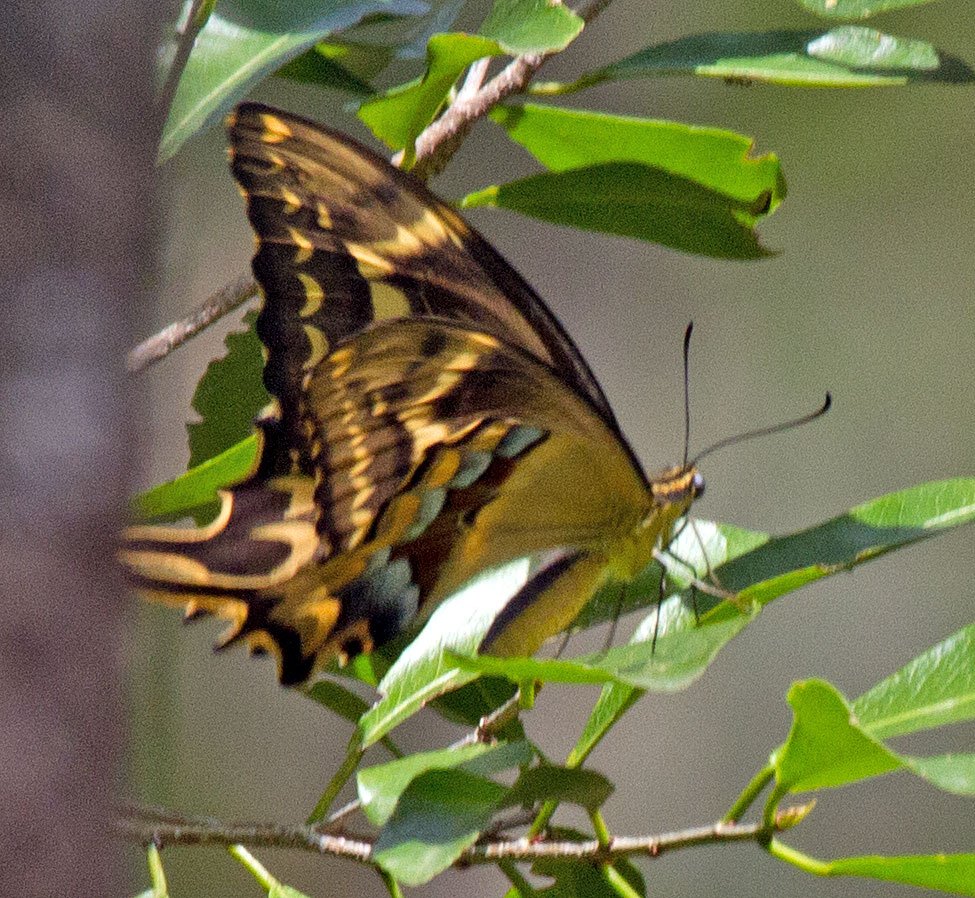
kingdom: Animalia
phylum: Arthropoda
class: Insecta
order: Lepidoptera
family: Papilionidae
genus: Heraclides
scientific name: Heraclides ponceana
